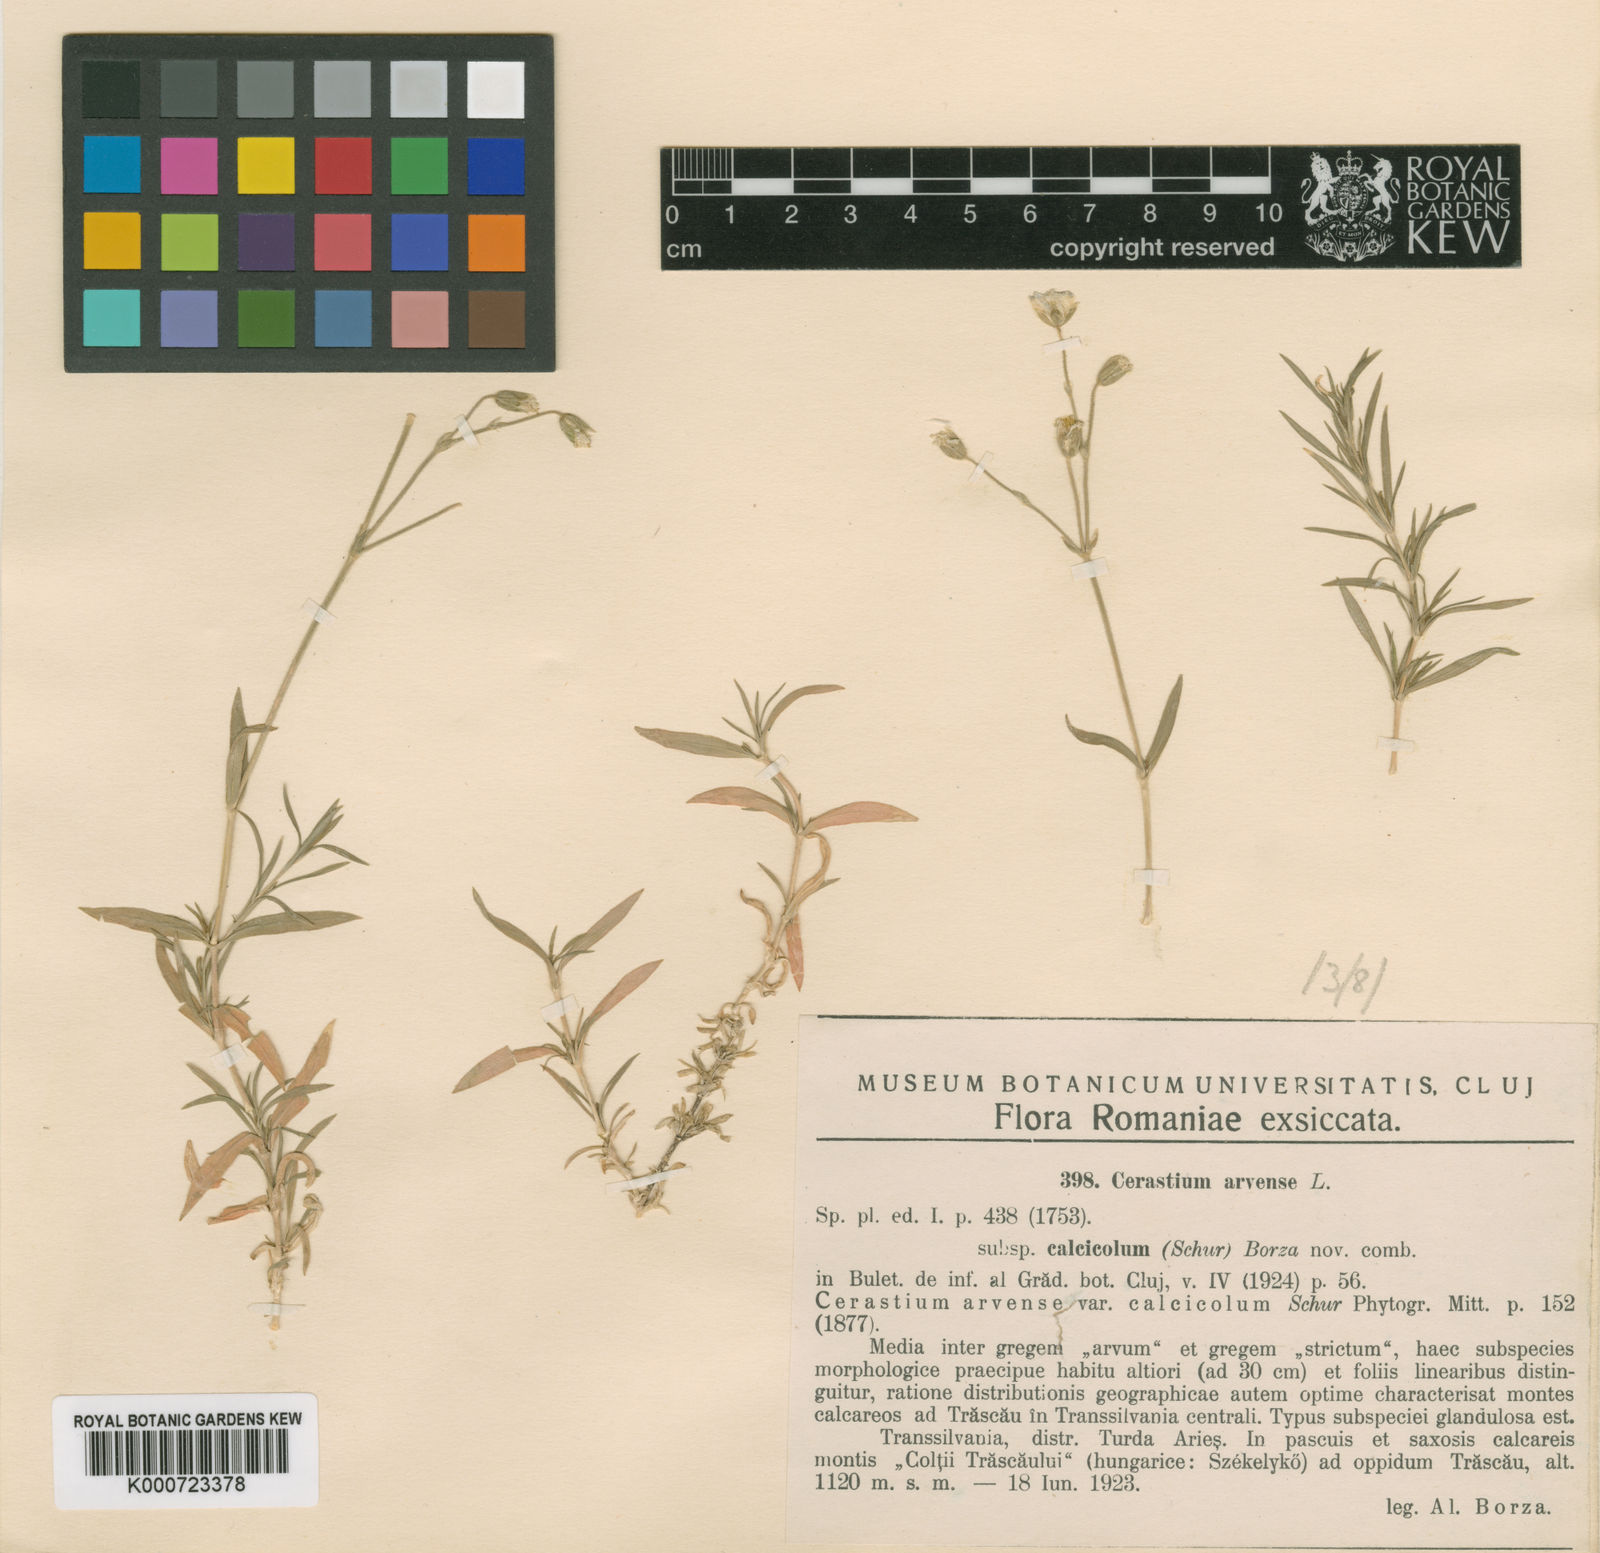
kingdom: Plantae
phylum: Tracheophyta
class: Magnoliopsida
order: Caryophyllales
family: Caryophyllaceae
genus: Cerastium
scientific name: Cerastium arvense
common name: Field mouse-ear
